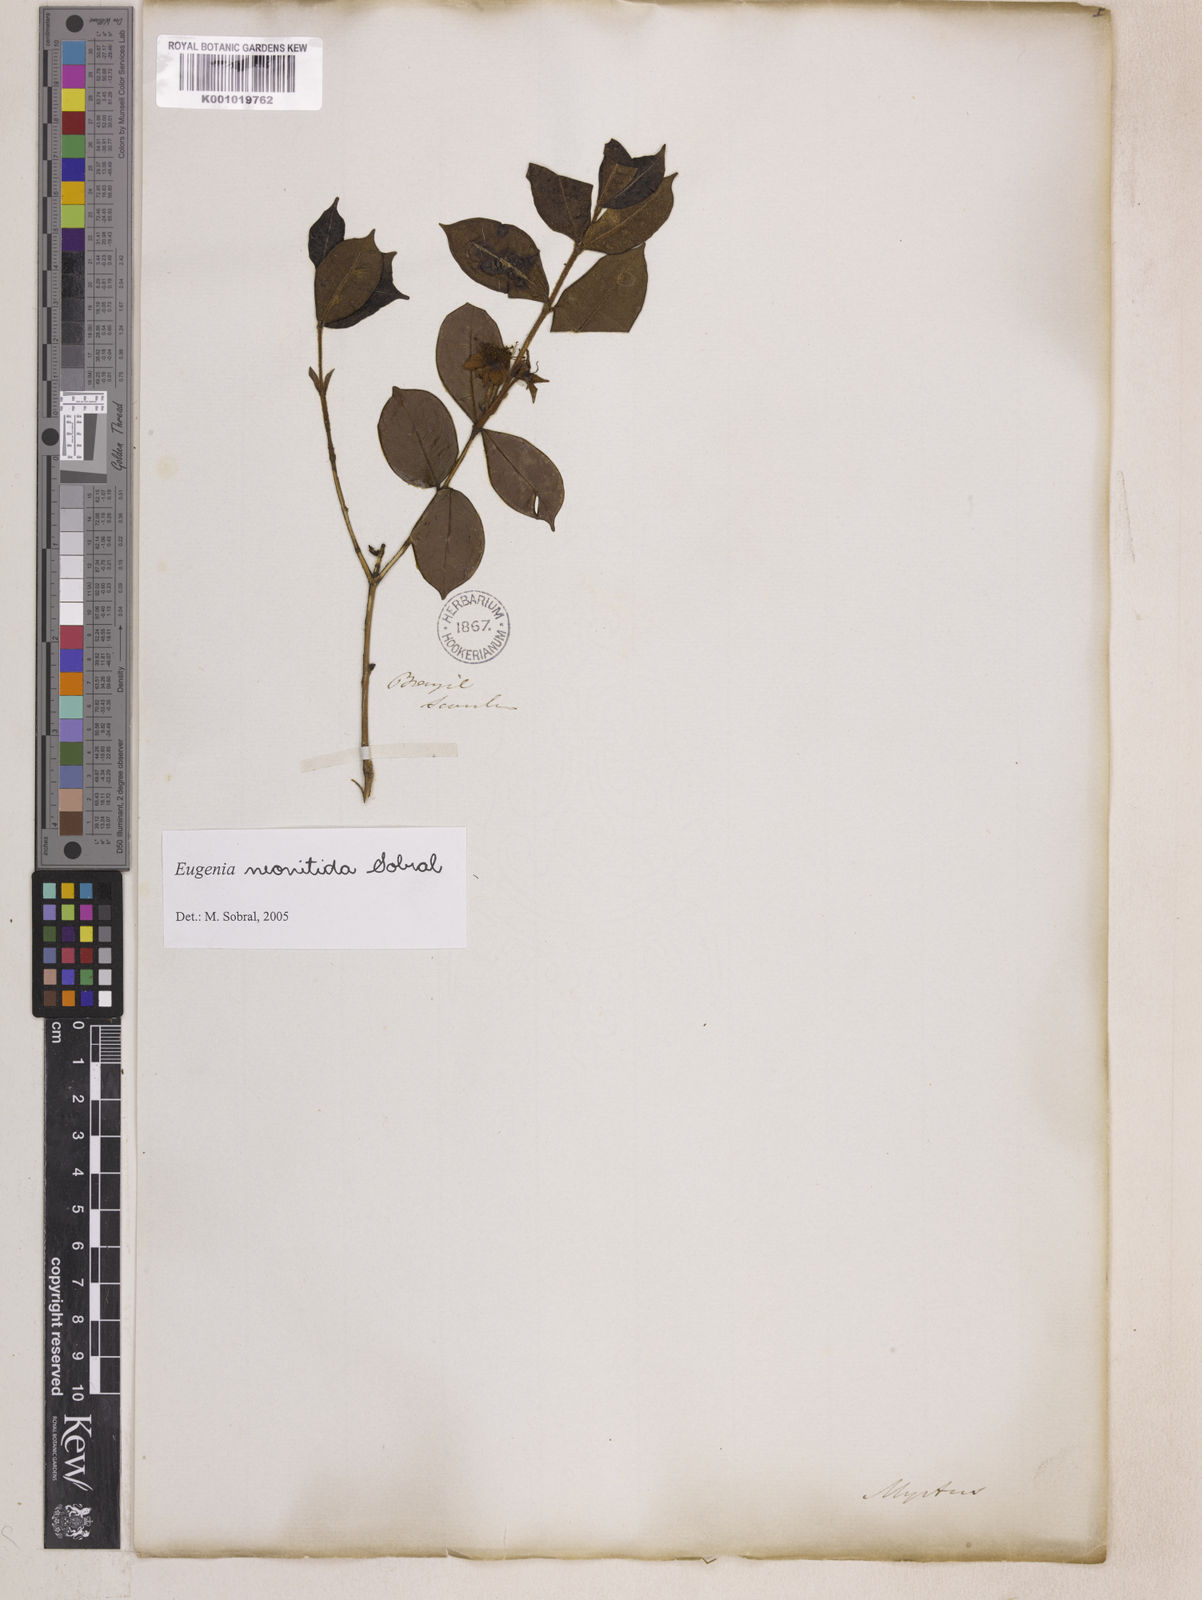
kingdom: Plantae
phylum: Tracheophyta
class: Magnoliopsida
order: Myrtales
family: Myrtaceae
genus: Eugenia
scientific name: Eugenia selloi
